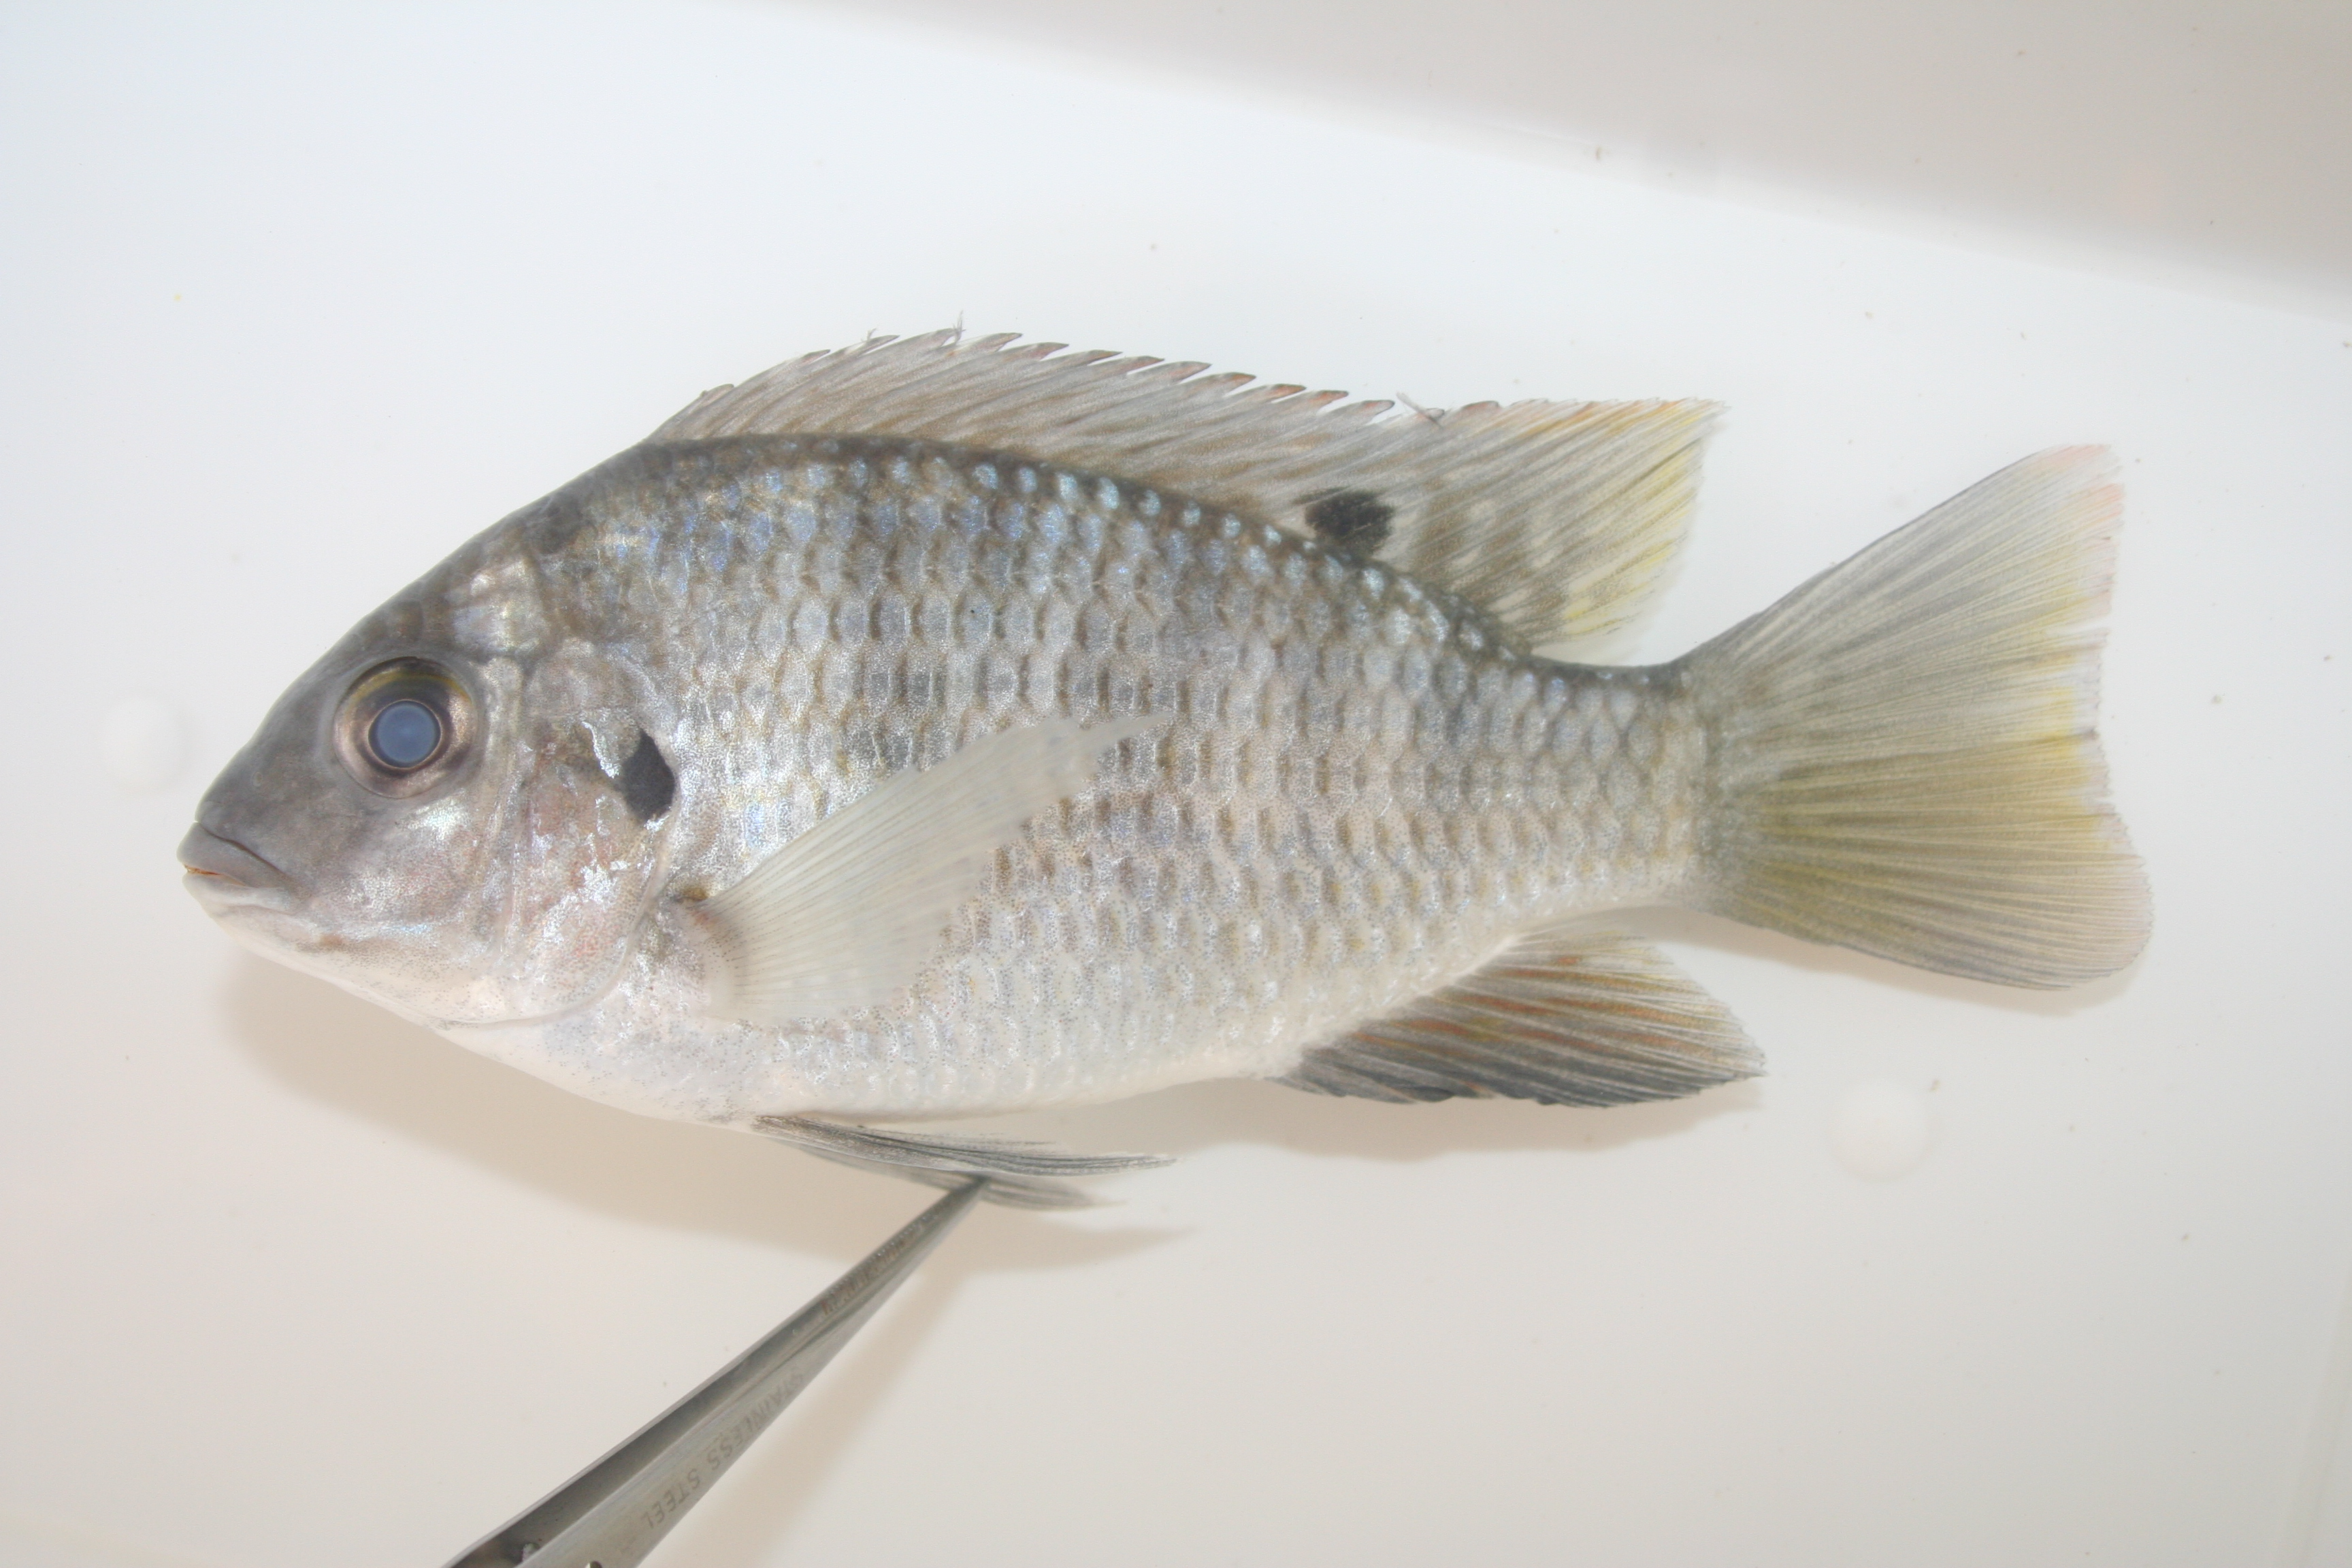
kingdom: Animalia
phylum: Chordata
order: Perciformes
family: Cichlidae
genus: Pelmatolapia
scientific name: Pelmatolapia cabrae
